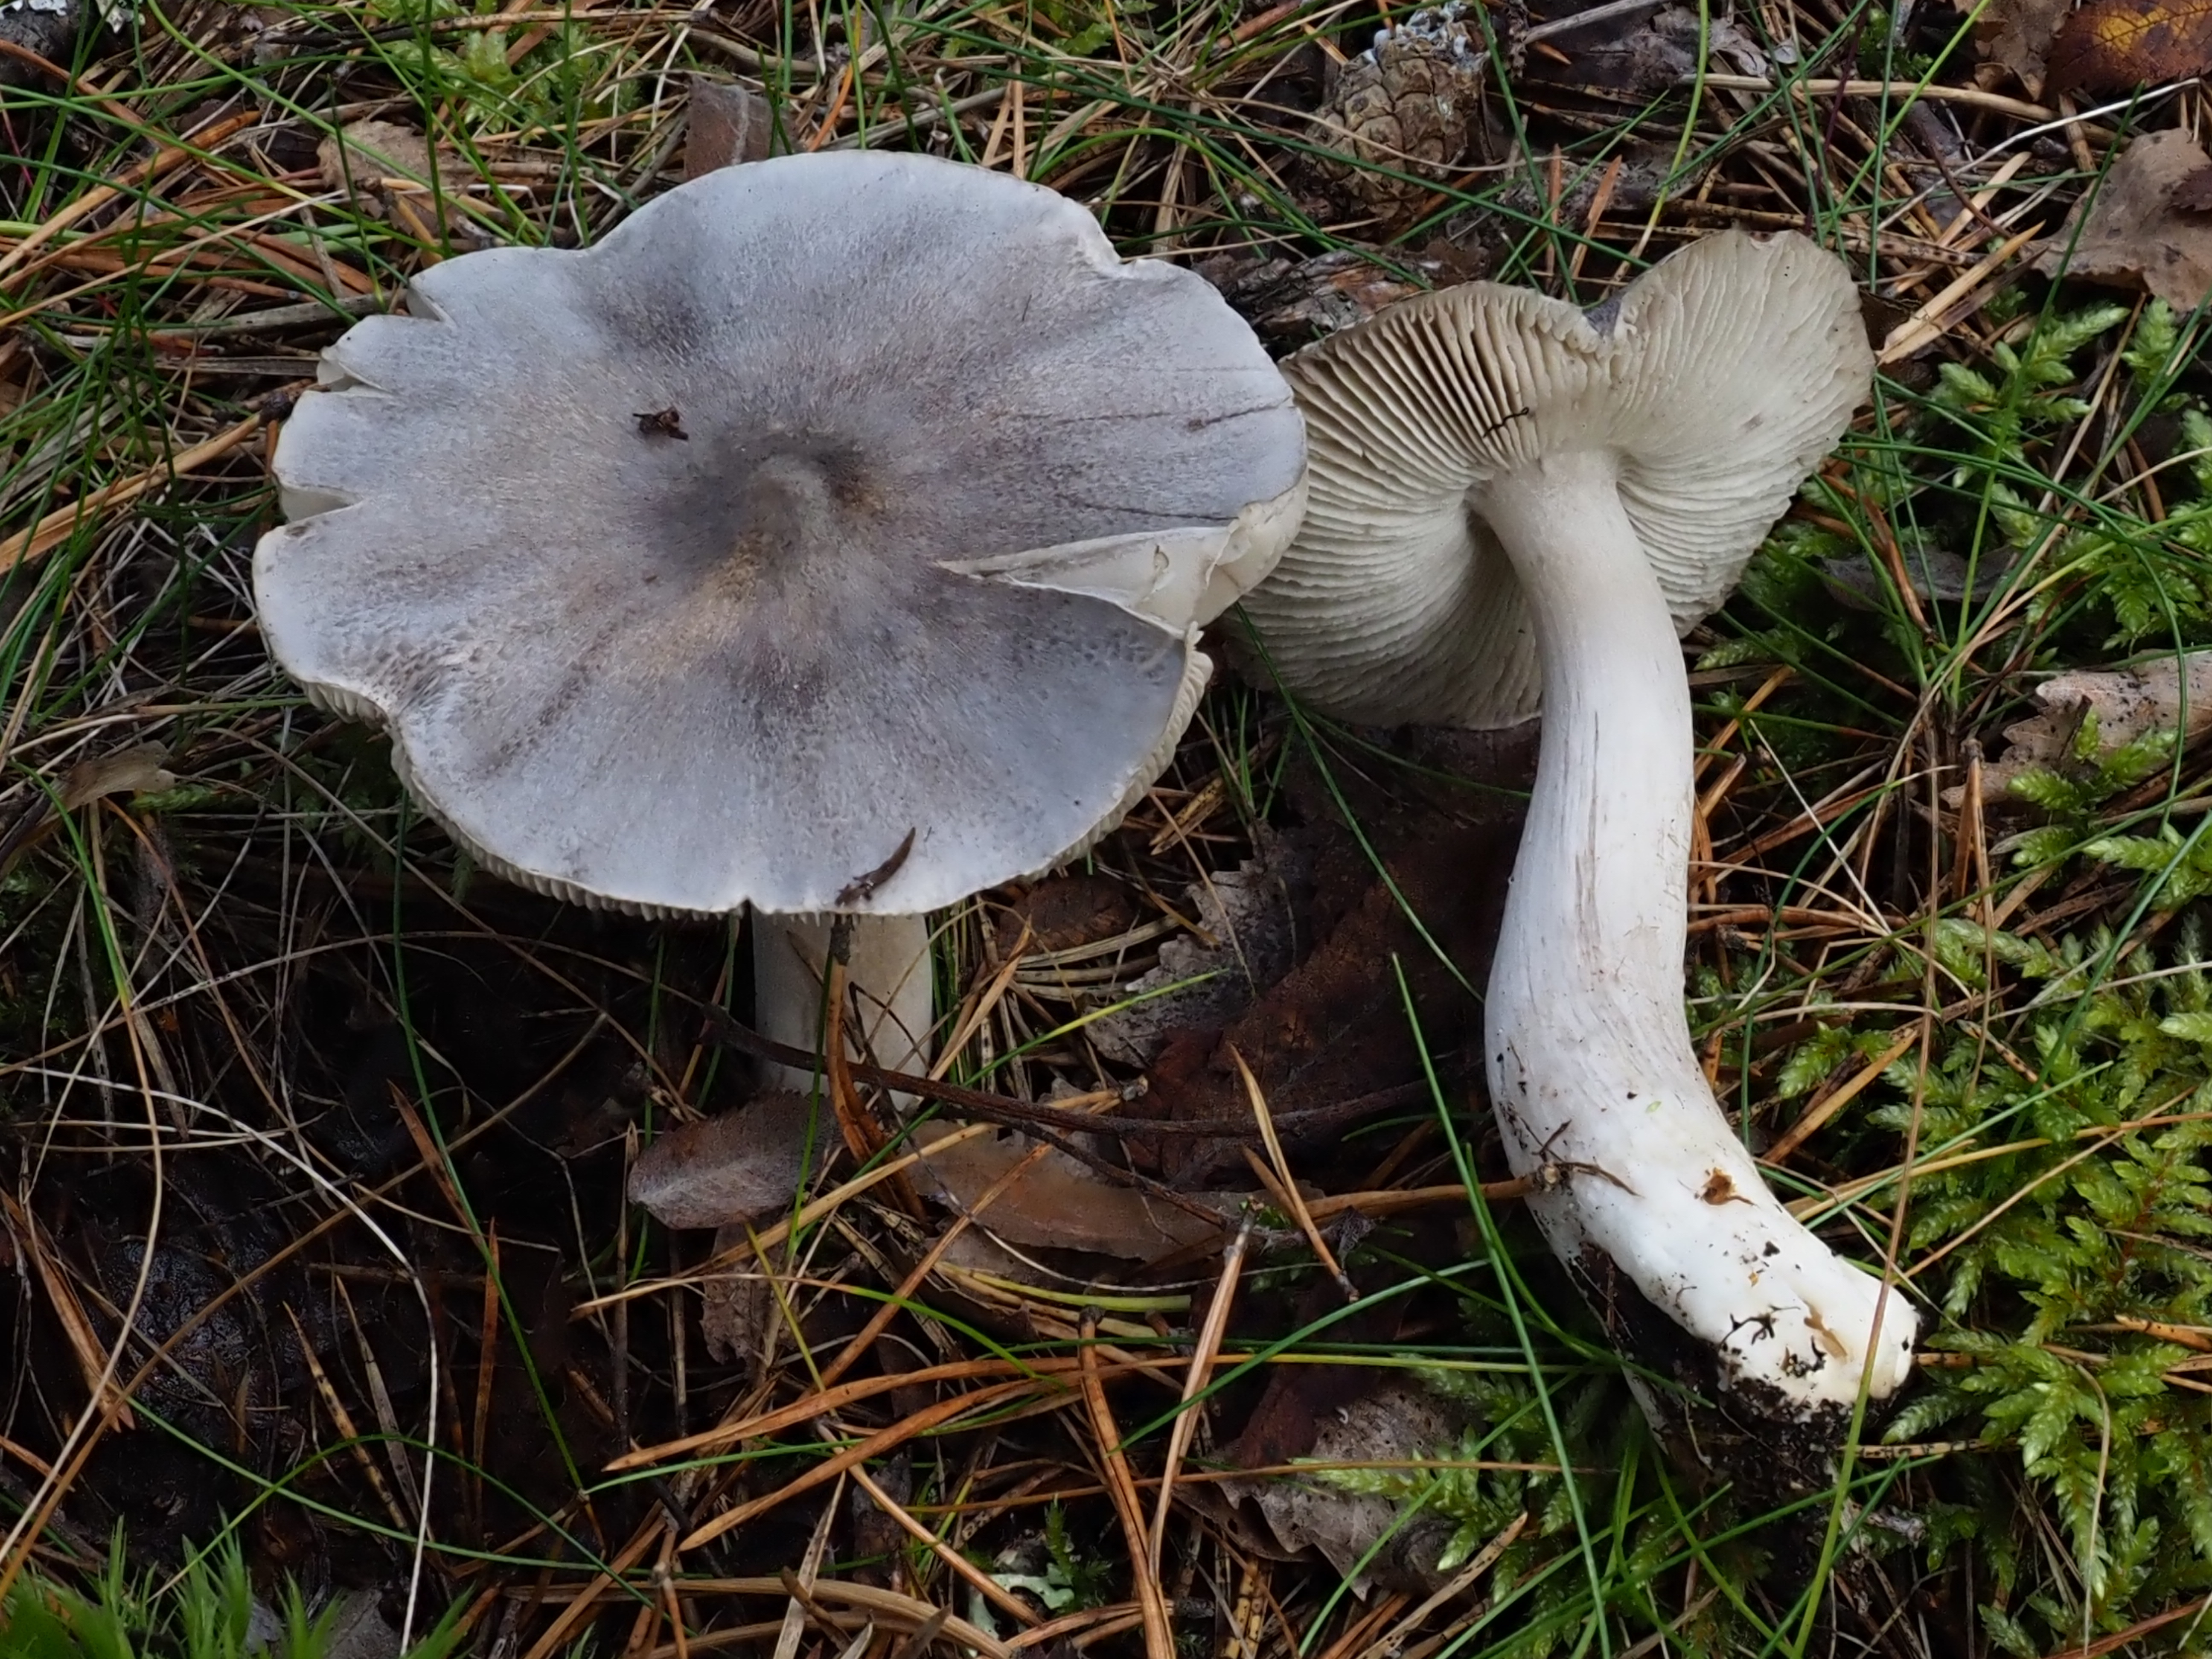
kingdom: Fungi
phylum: Basidiomycota
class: Agaricomycetes
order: Agaricales
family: Tricholomataceae
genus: Tricholoma
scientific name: Tricholoma virgatum
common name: Ashen knight
